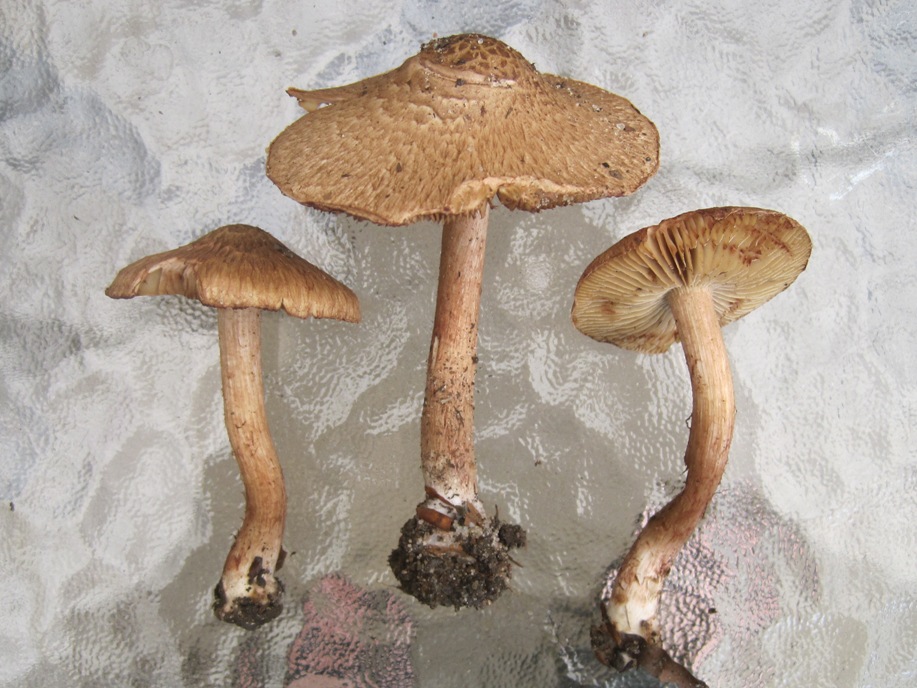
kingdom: Fungi
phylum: Basidiomycota
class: Agaricomycetes
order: Agaricales
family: Inocybaceae
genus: Inosperma
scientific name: Inosperma bongardii
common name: Bongards trævlhat
